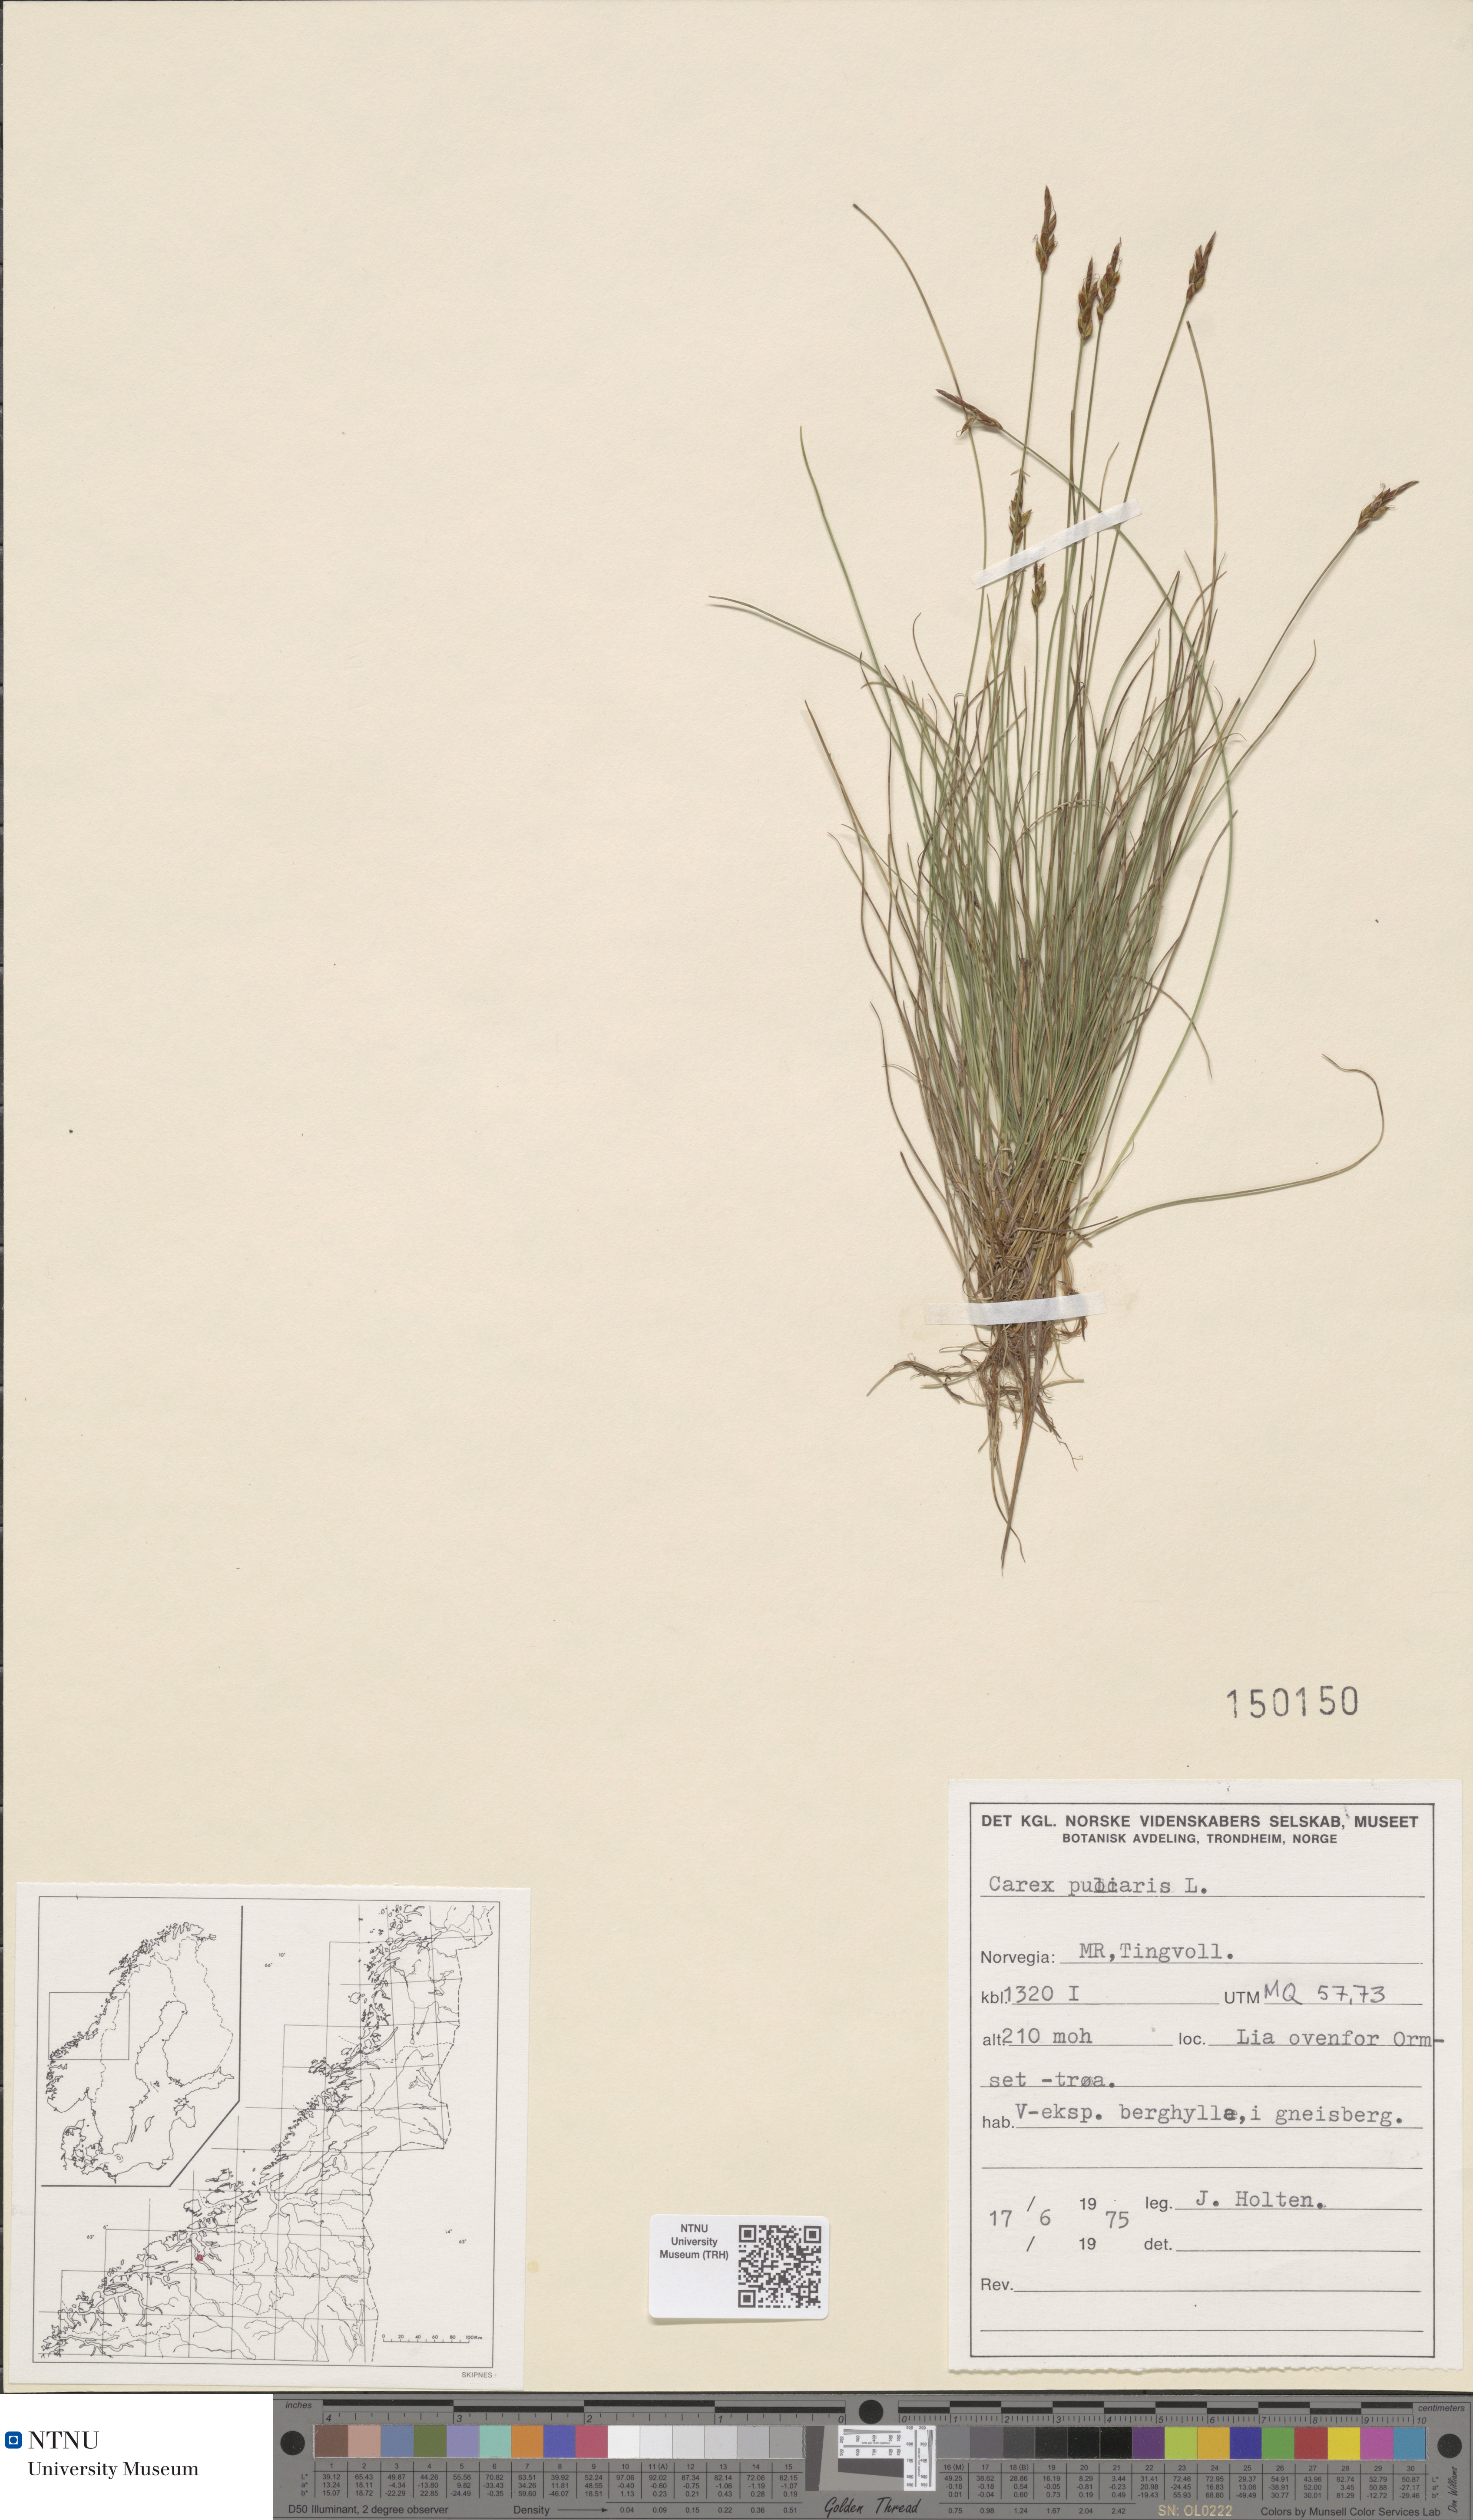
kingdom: Plantae
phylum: Tracheophyta
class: Liliopsida
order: Poales
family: Cyperaceae
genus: Carex
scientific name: Carex pulicaris
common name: Flea sedge
